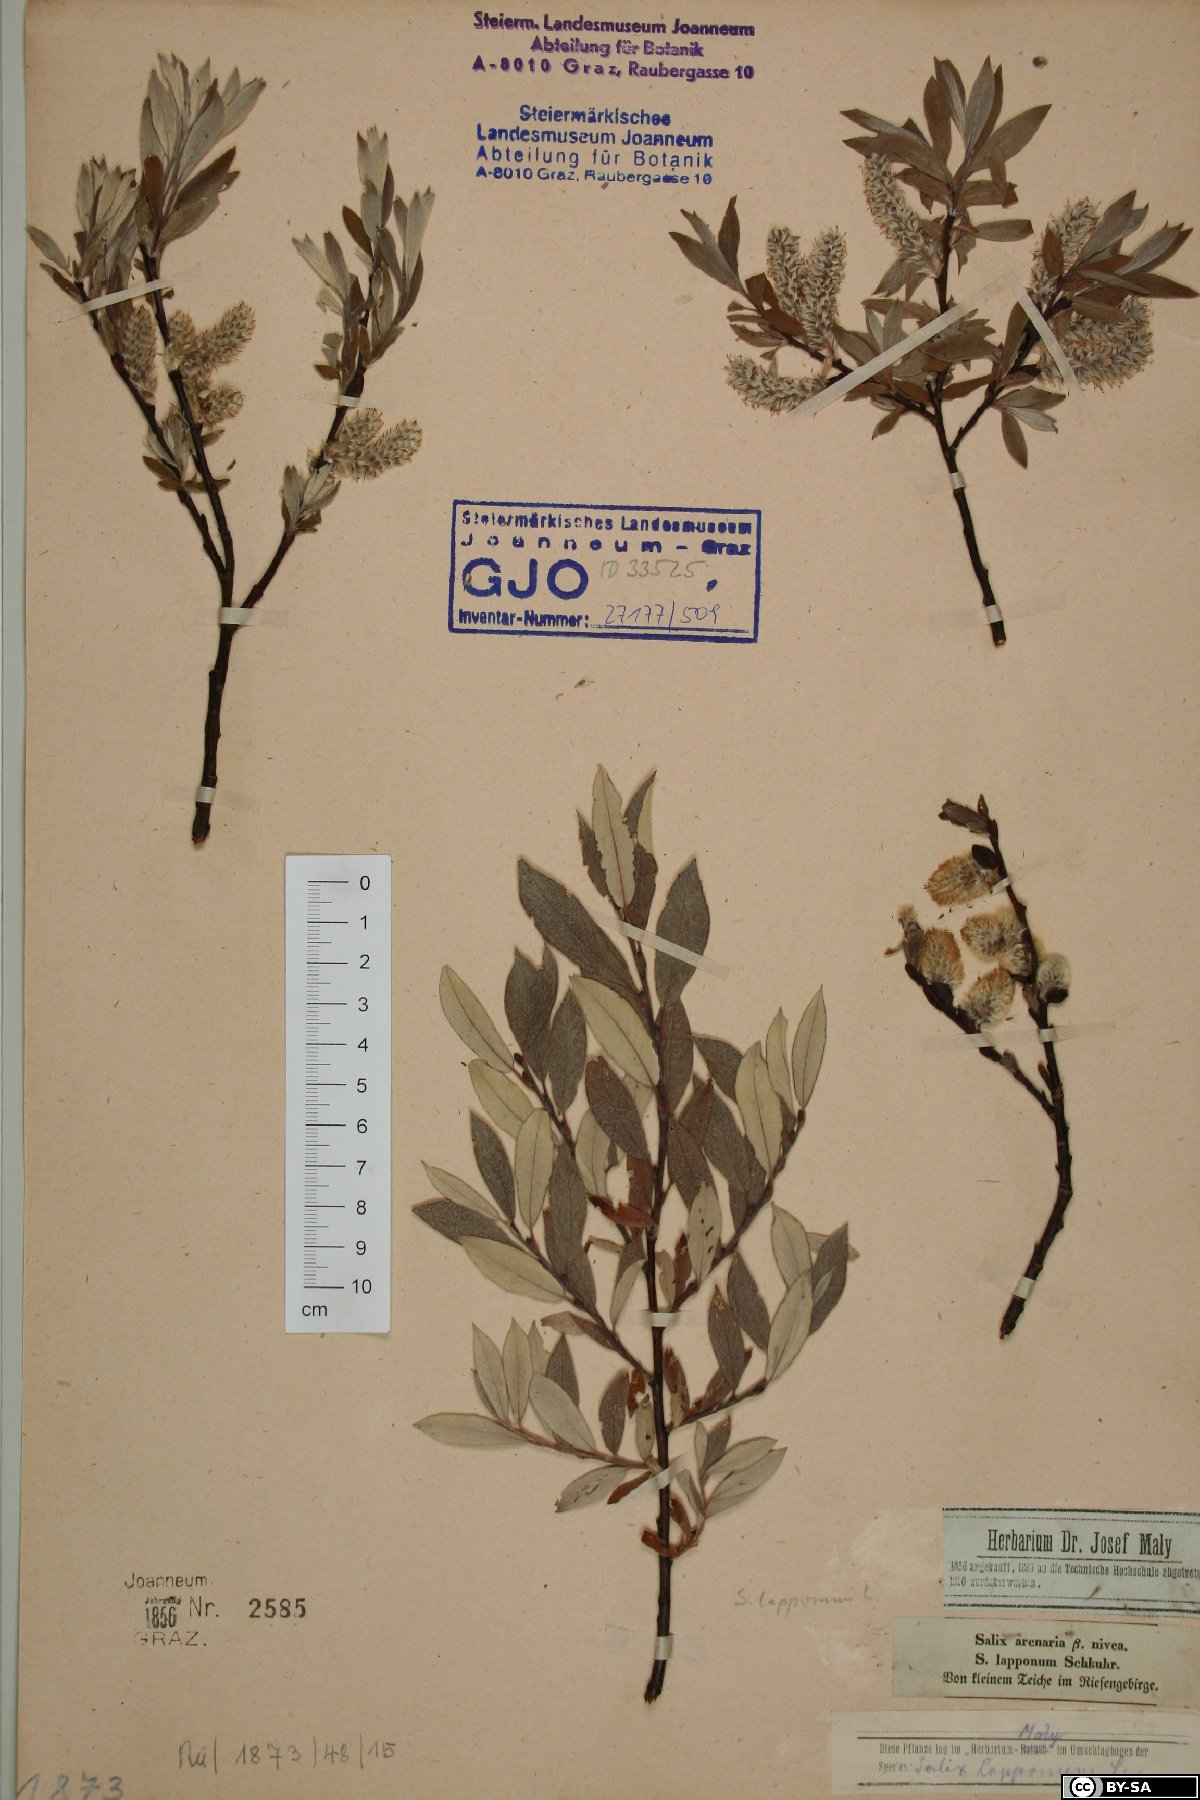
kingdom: Plantae
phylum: Tracheophyta
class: Magnoliopsida
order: Malpighiales
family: Salicaceae
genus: Salix
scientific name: Salix lapponum
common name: Downy willow
